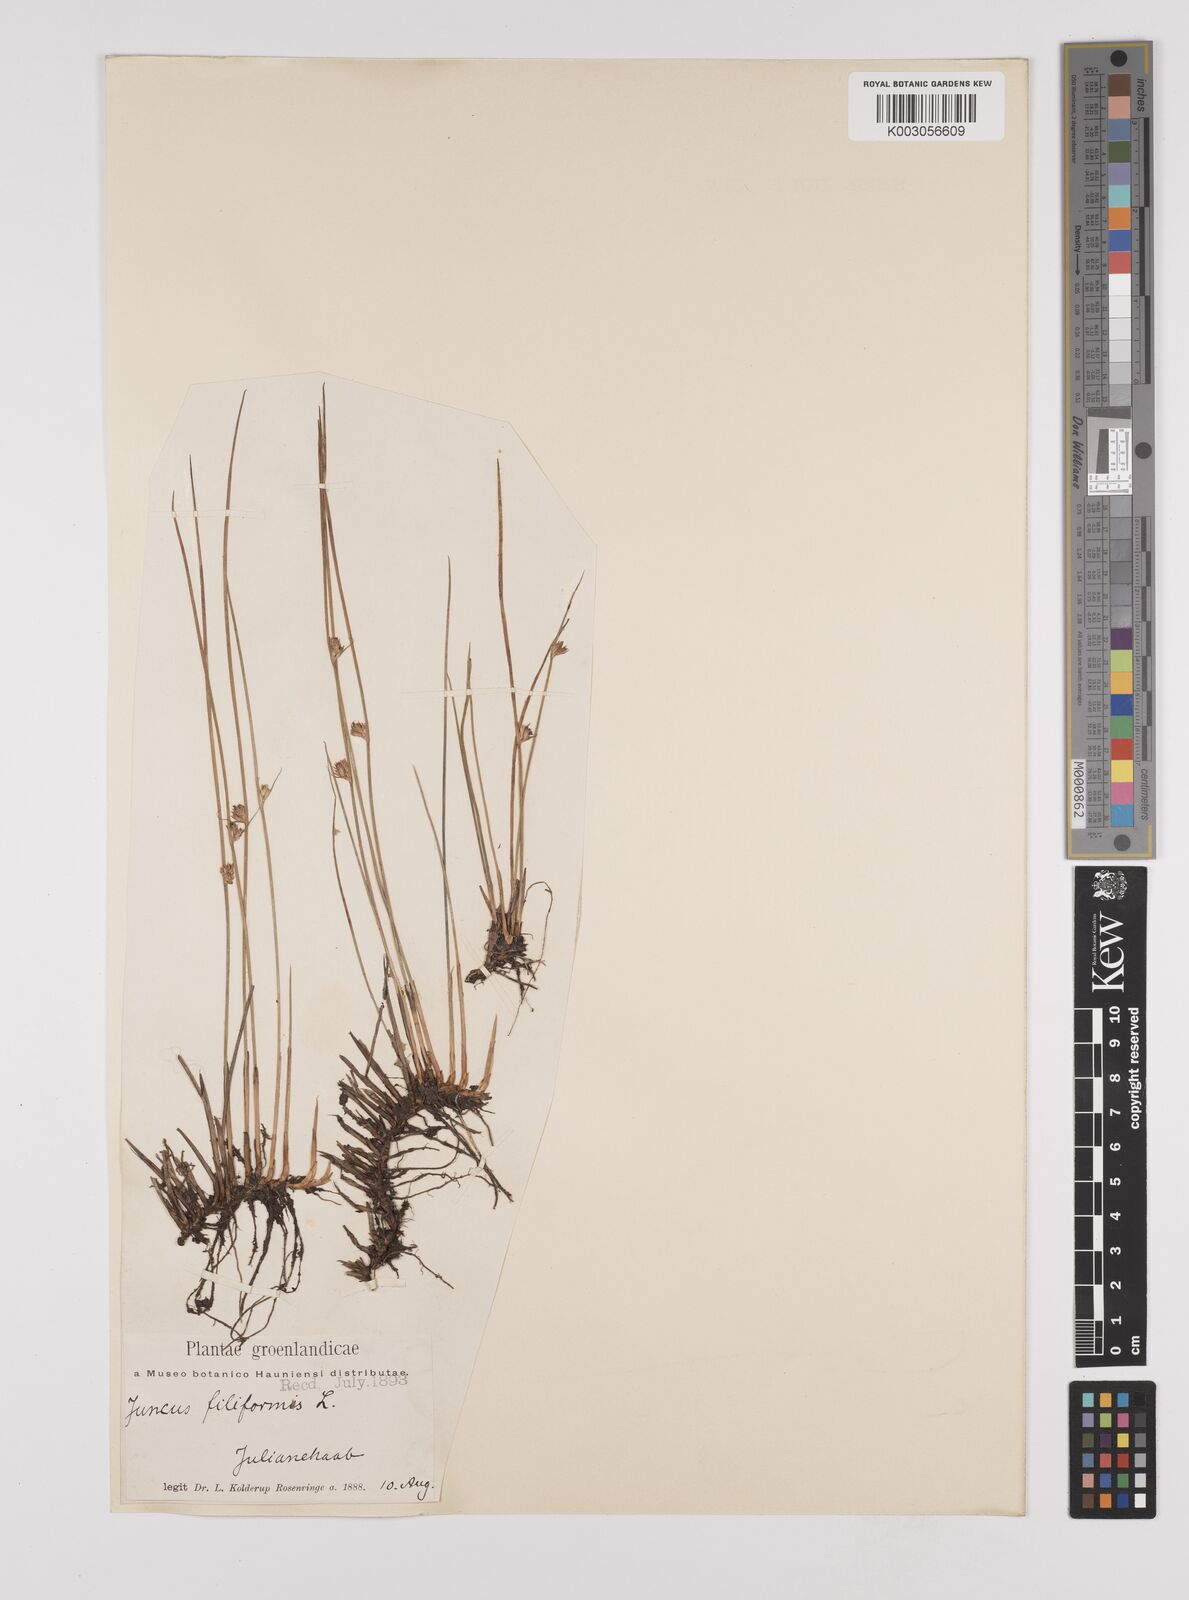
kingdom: Plantae
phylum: Tracheophyta
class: Liliopsida
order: Poales
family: Juncaceae
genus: Juncus
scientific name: Juncus filiformis
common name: Thread rush
